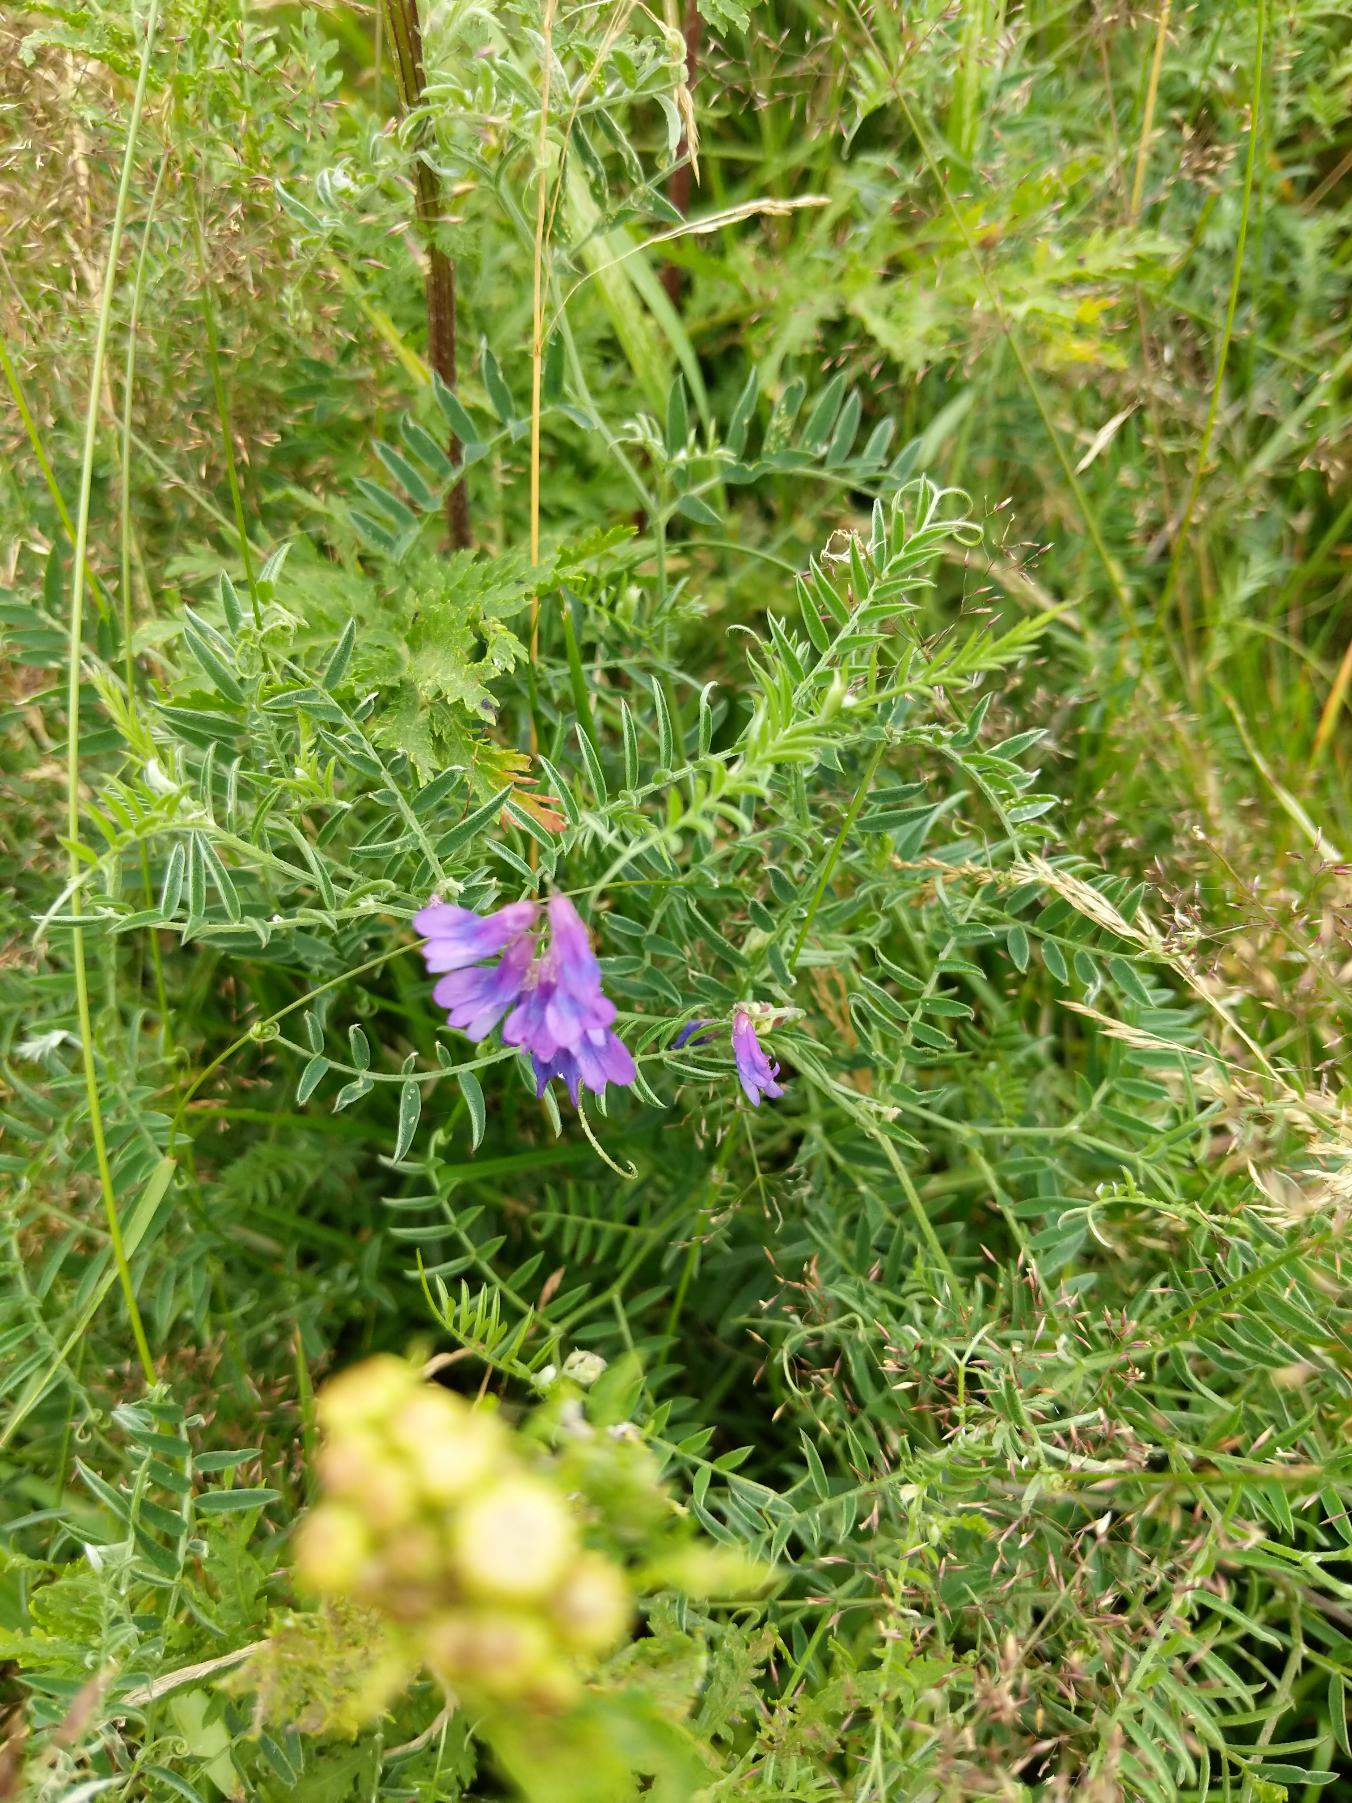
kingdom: Plantae
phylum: Tracheophyta
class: Magnoliopsida
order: Fabales
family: Fabaceae
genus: Vicia
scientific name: Vicia cracca
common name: Muse-vikke
